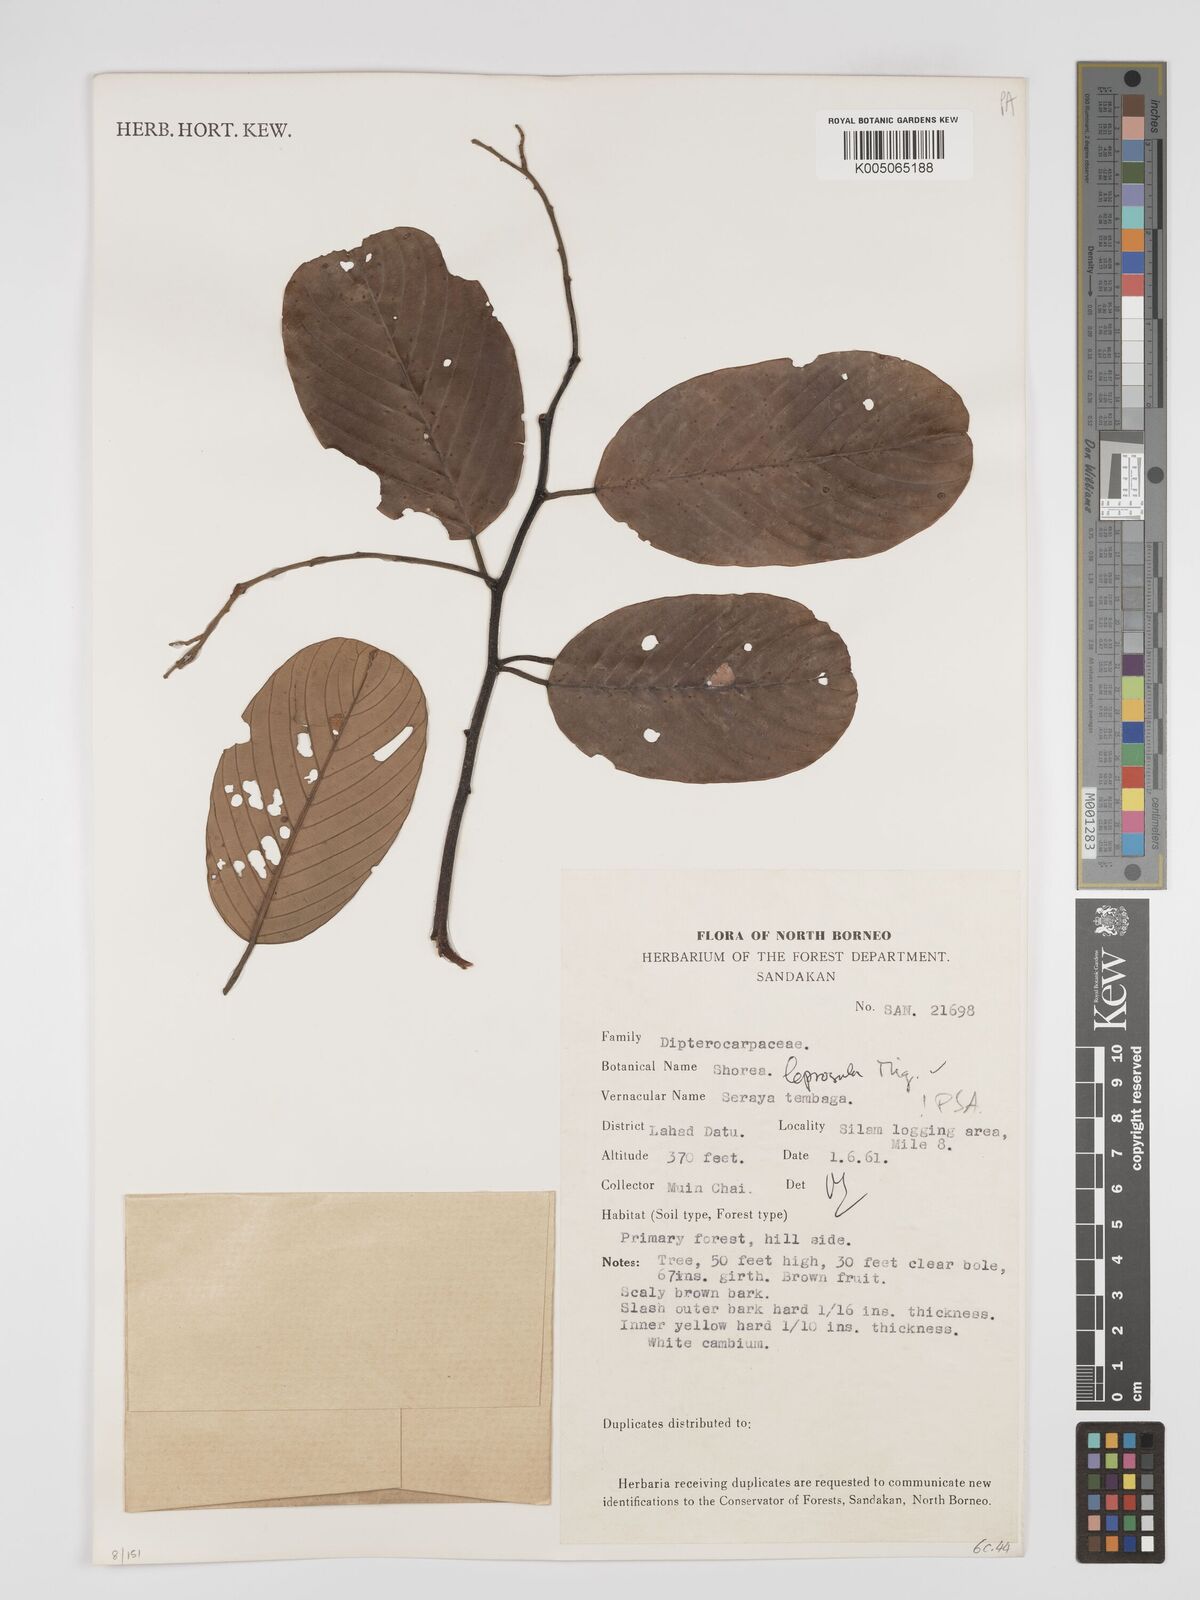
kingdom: Plantae
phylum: Tracheophyta
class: Magnoliopsida
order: Malvales
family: Dipterocarpaceae
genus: Shorea
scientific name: Shorea leprosula
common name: Light red meranti
